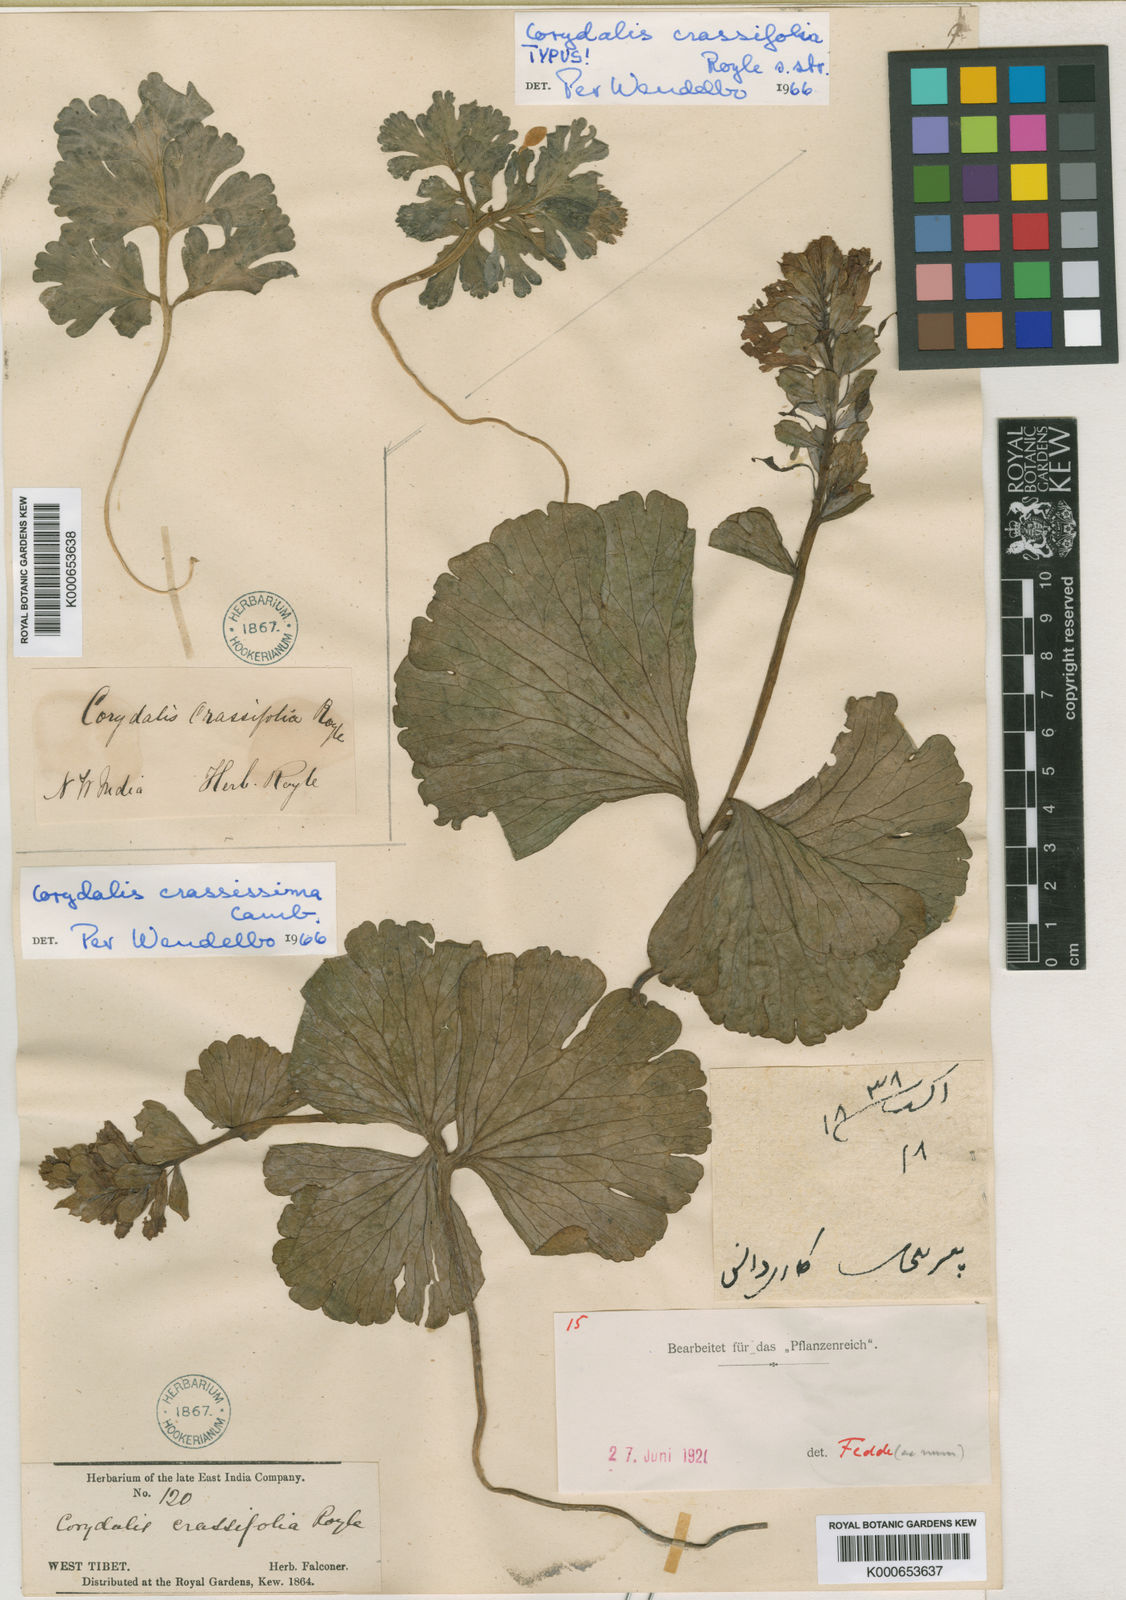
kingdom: Plantae
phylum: Tracheophyta
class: Magnoliopsida
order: Ranunculales
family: Papaveraceae
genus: Corydalis
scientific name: Corydalis crassifolia
